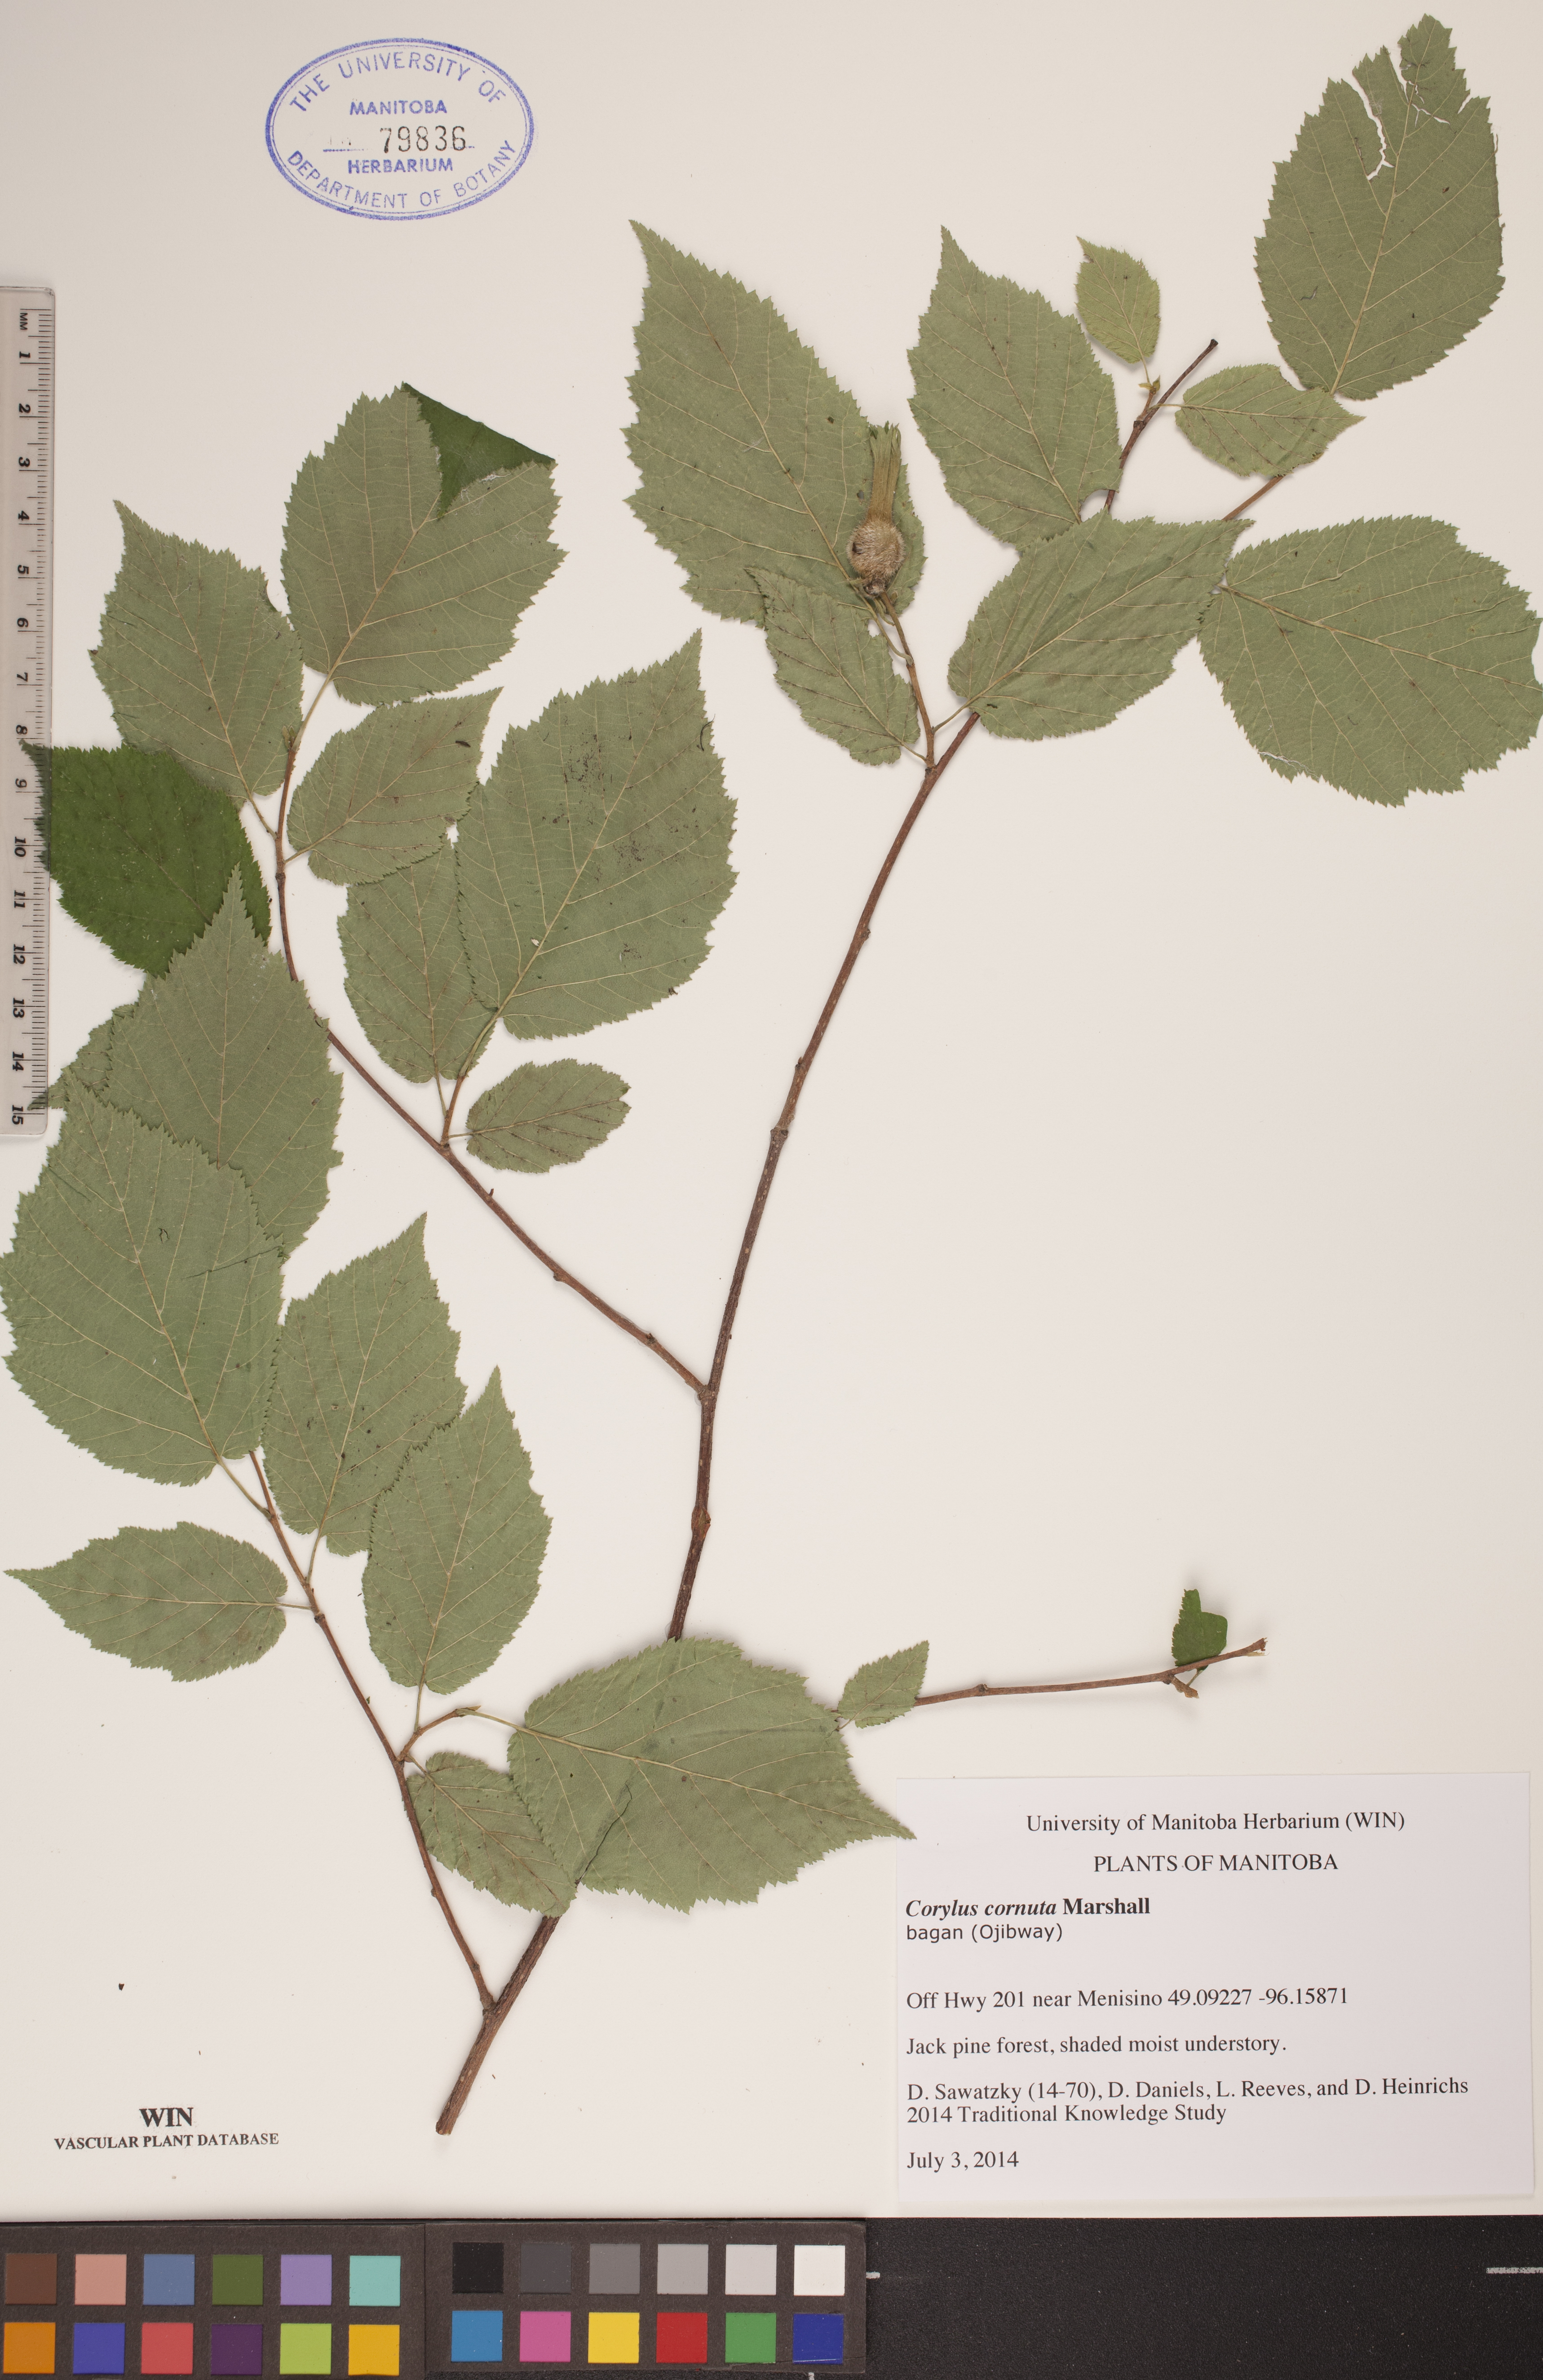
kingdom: Plantae
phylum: Tracheophyta
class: Magnoliopsida
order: Fagales
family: Betulaceae
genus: Corylus
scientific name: Corylus cornuta
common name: Beaked hazel
